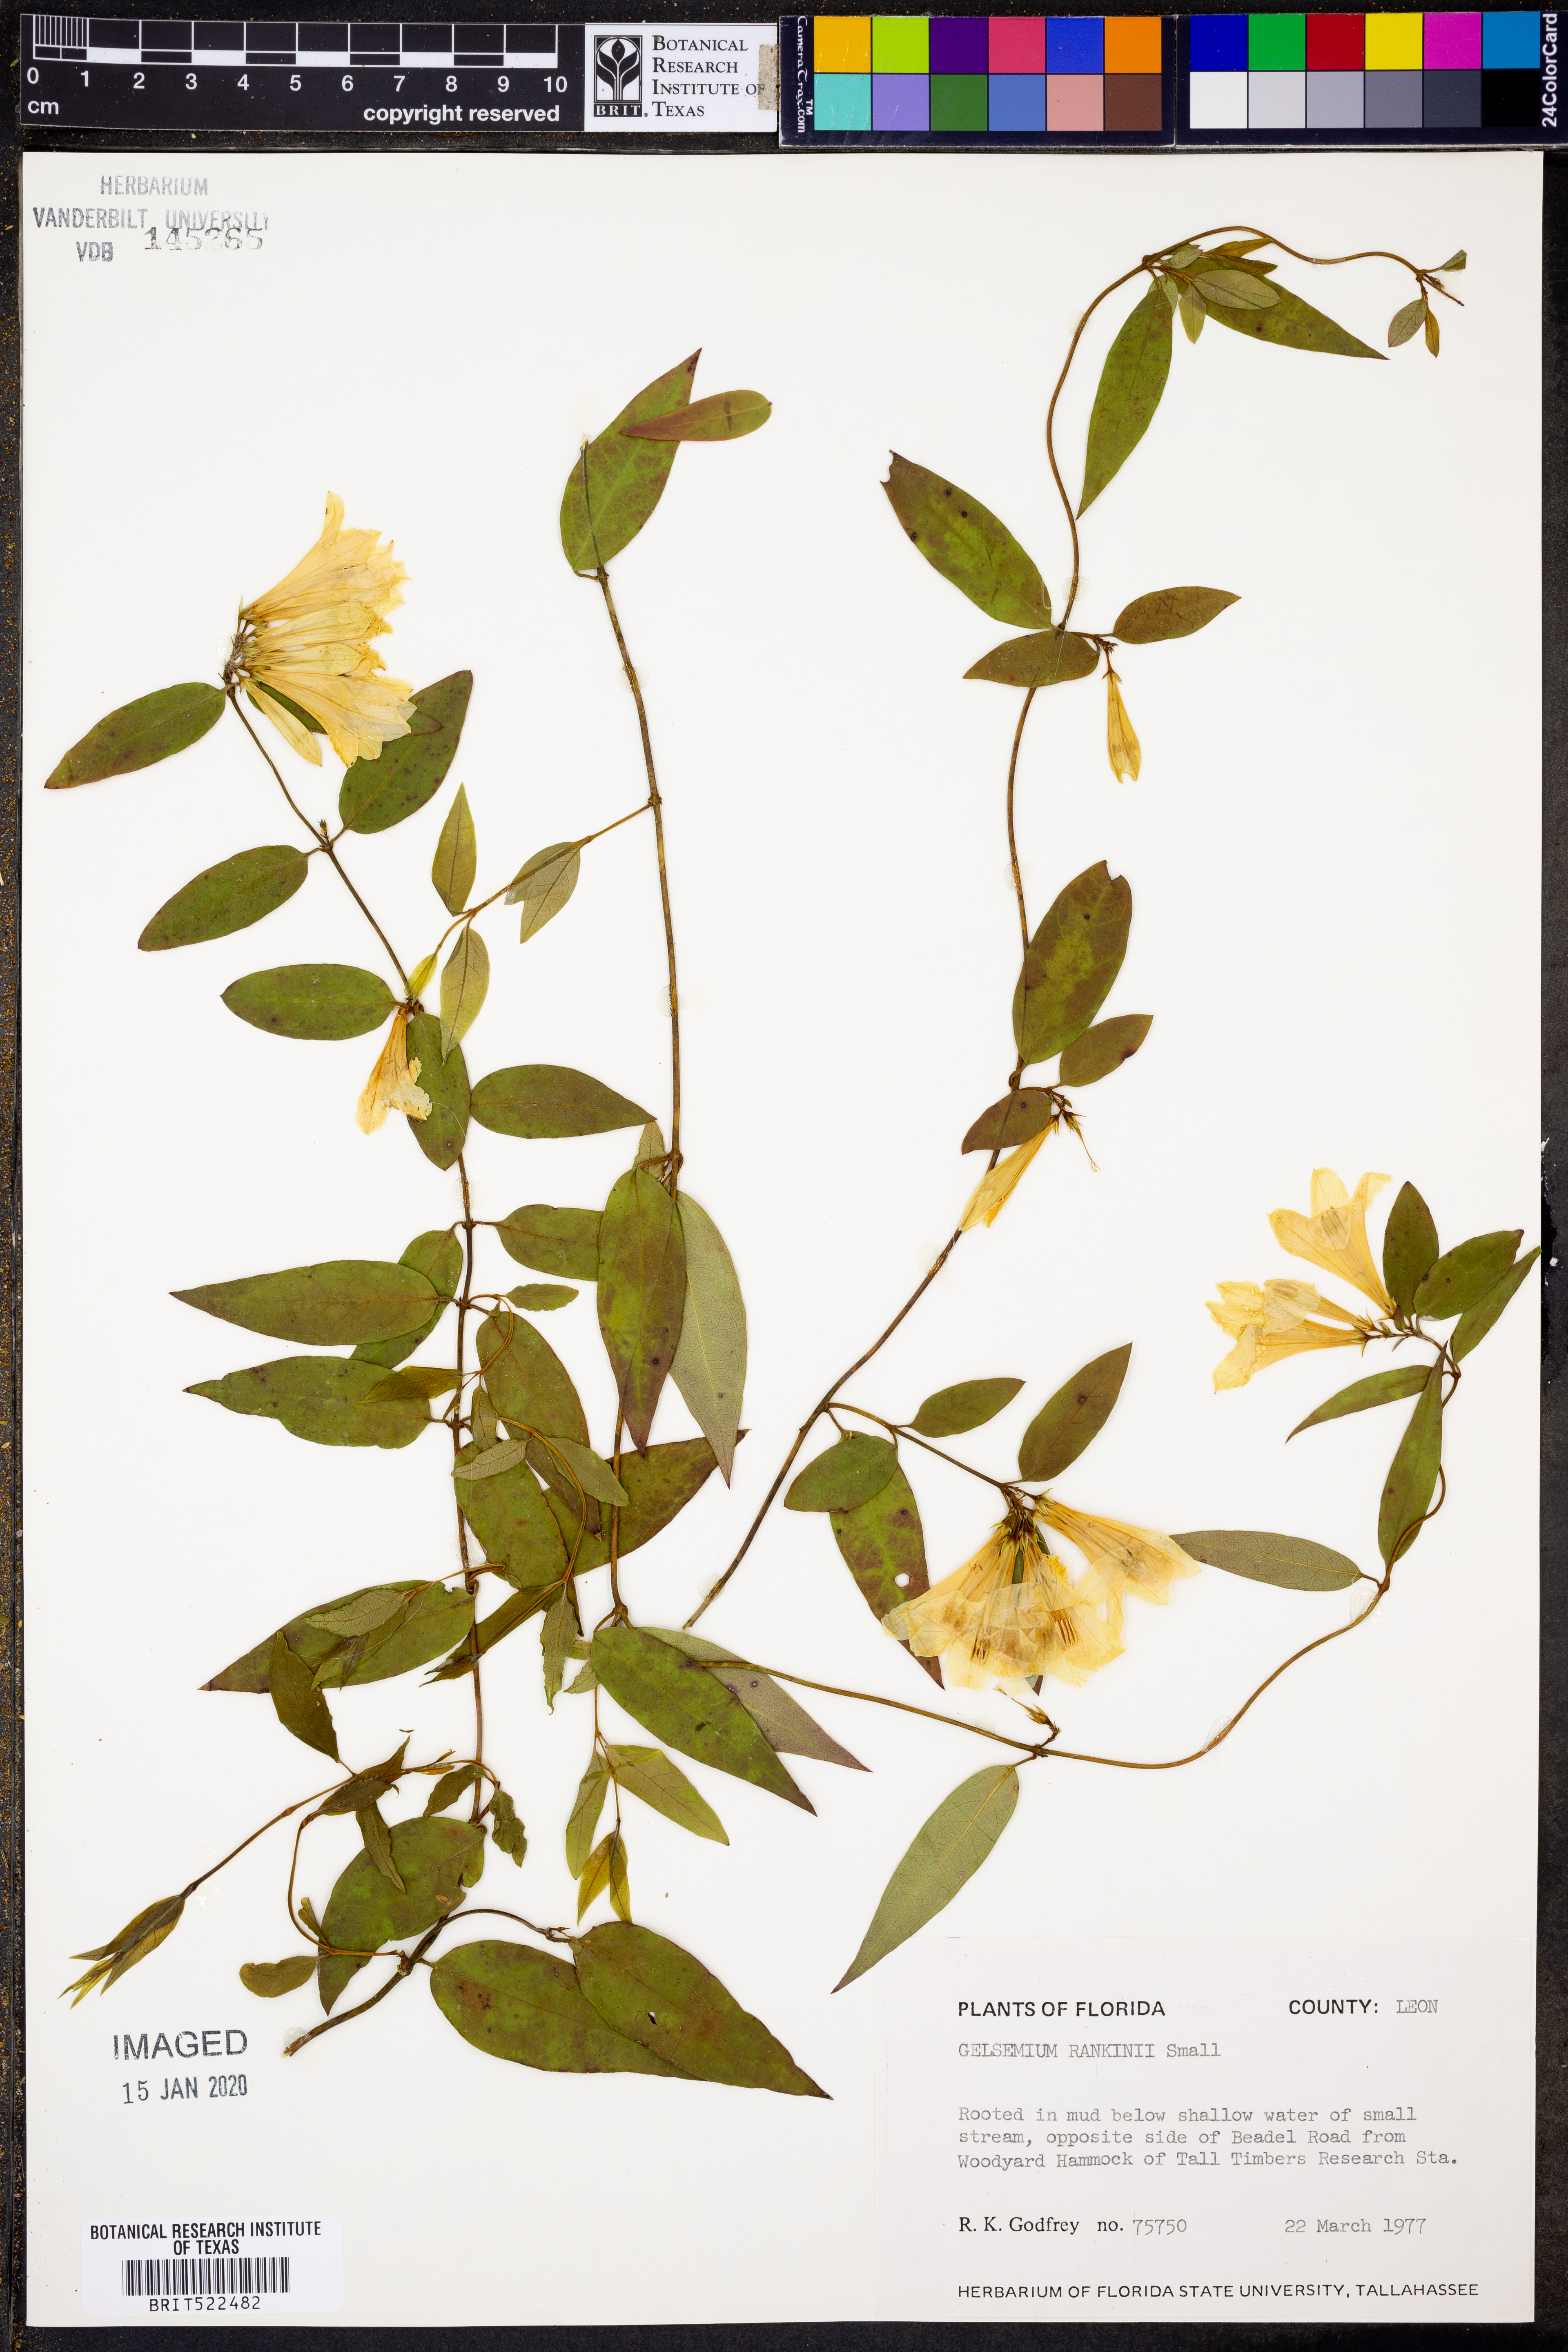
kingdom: Plantae
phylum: Tracheophyta
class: Magnoliopsida
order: Gentianales
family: Gelsemiaceae
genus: Gelsemium
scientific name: Gelsemium rankinii
